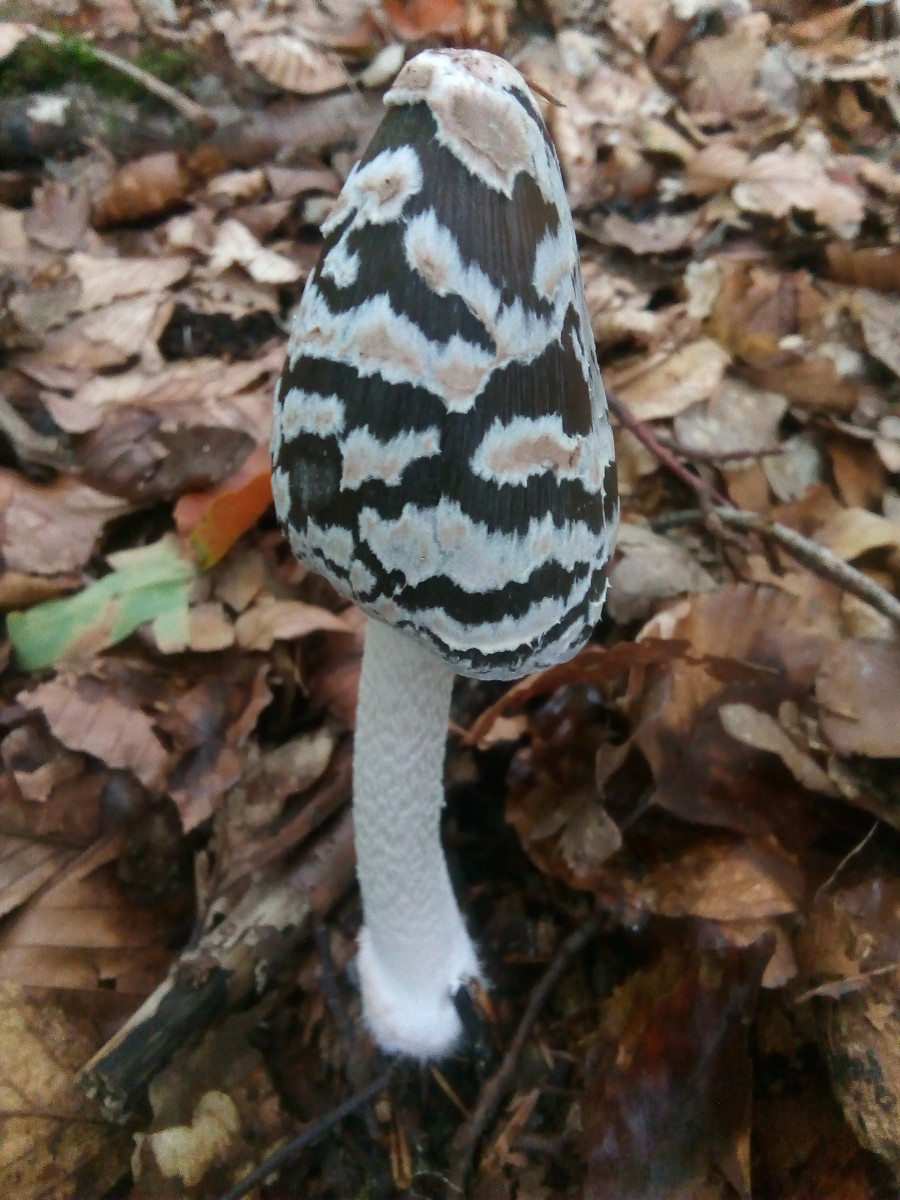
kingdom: Fungi
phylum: Basidiomycota
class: Agaricomycetes
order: Agaricales
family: Psathyrellaceae
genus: Coprinopsis
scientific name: Coprinopsis picacea
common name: skade-blækhat
